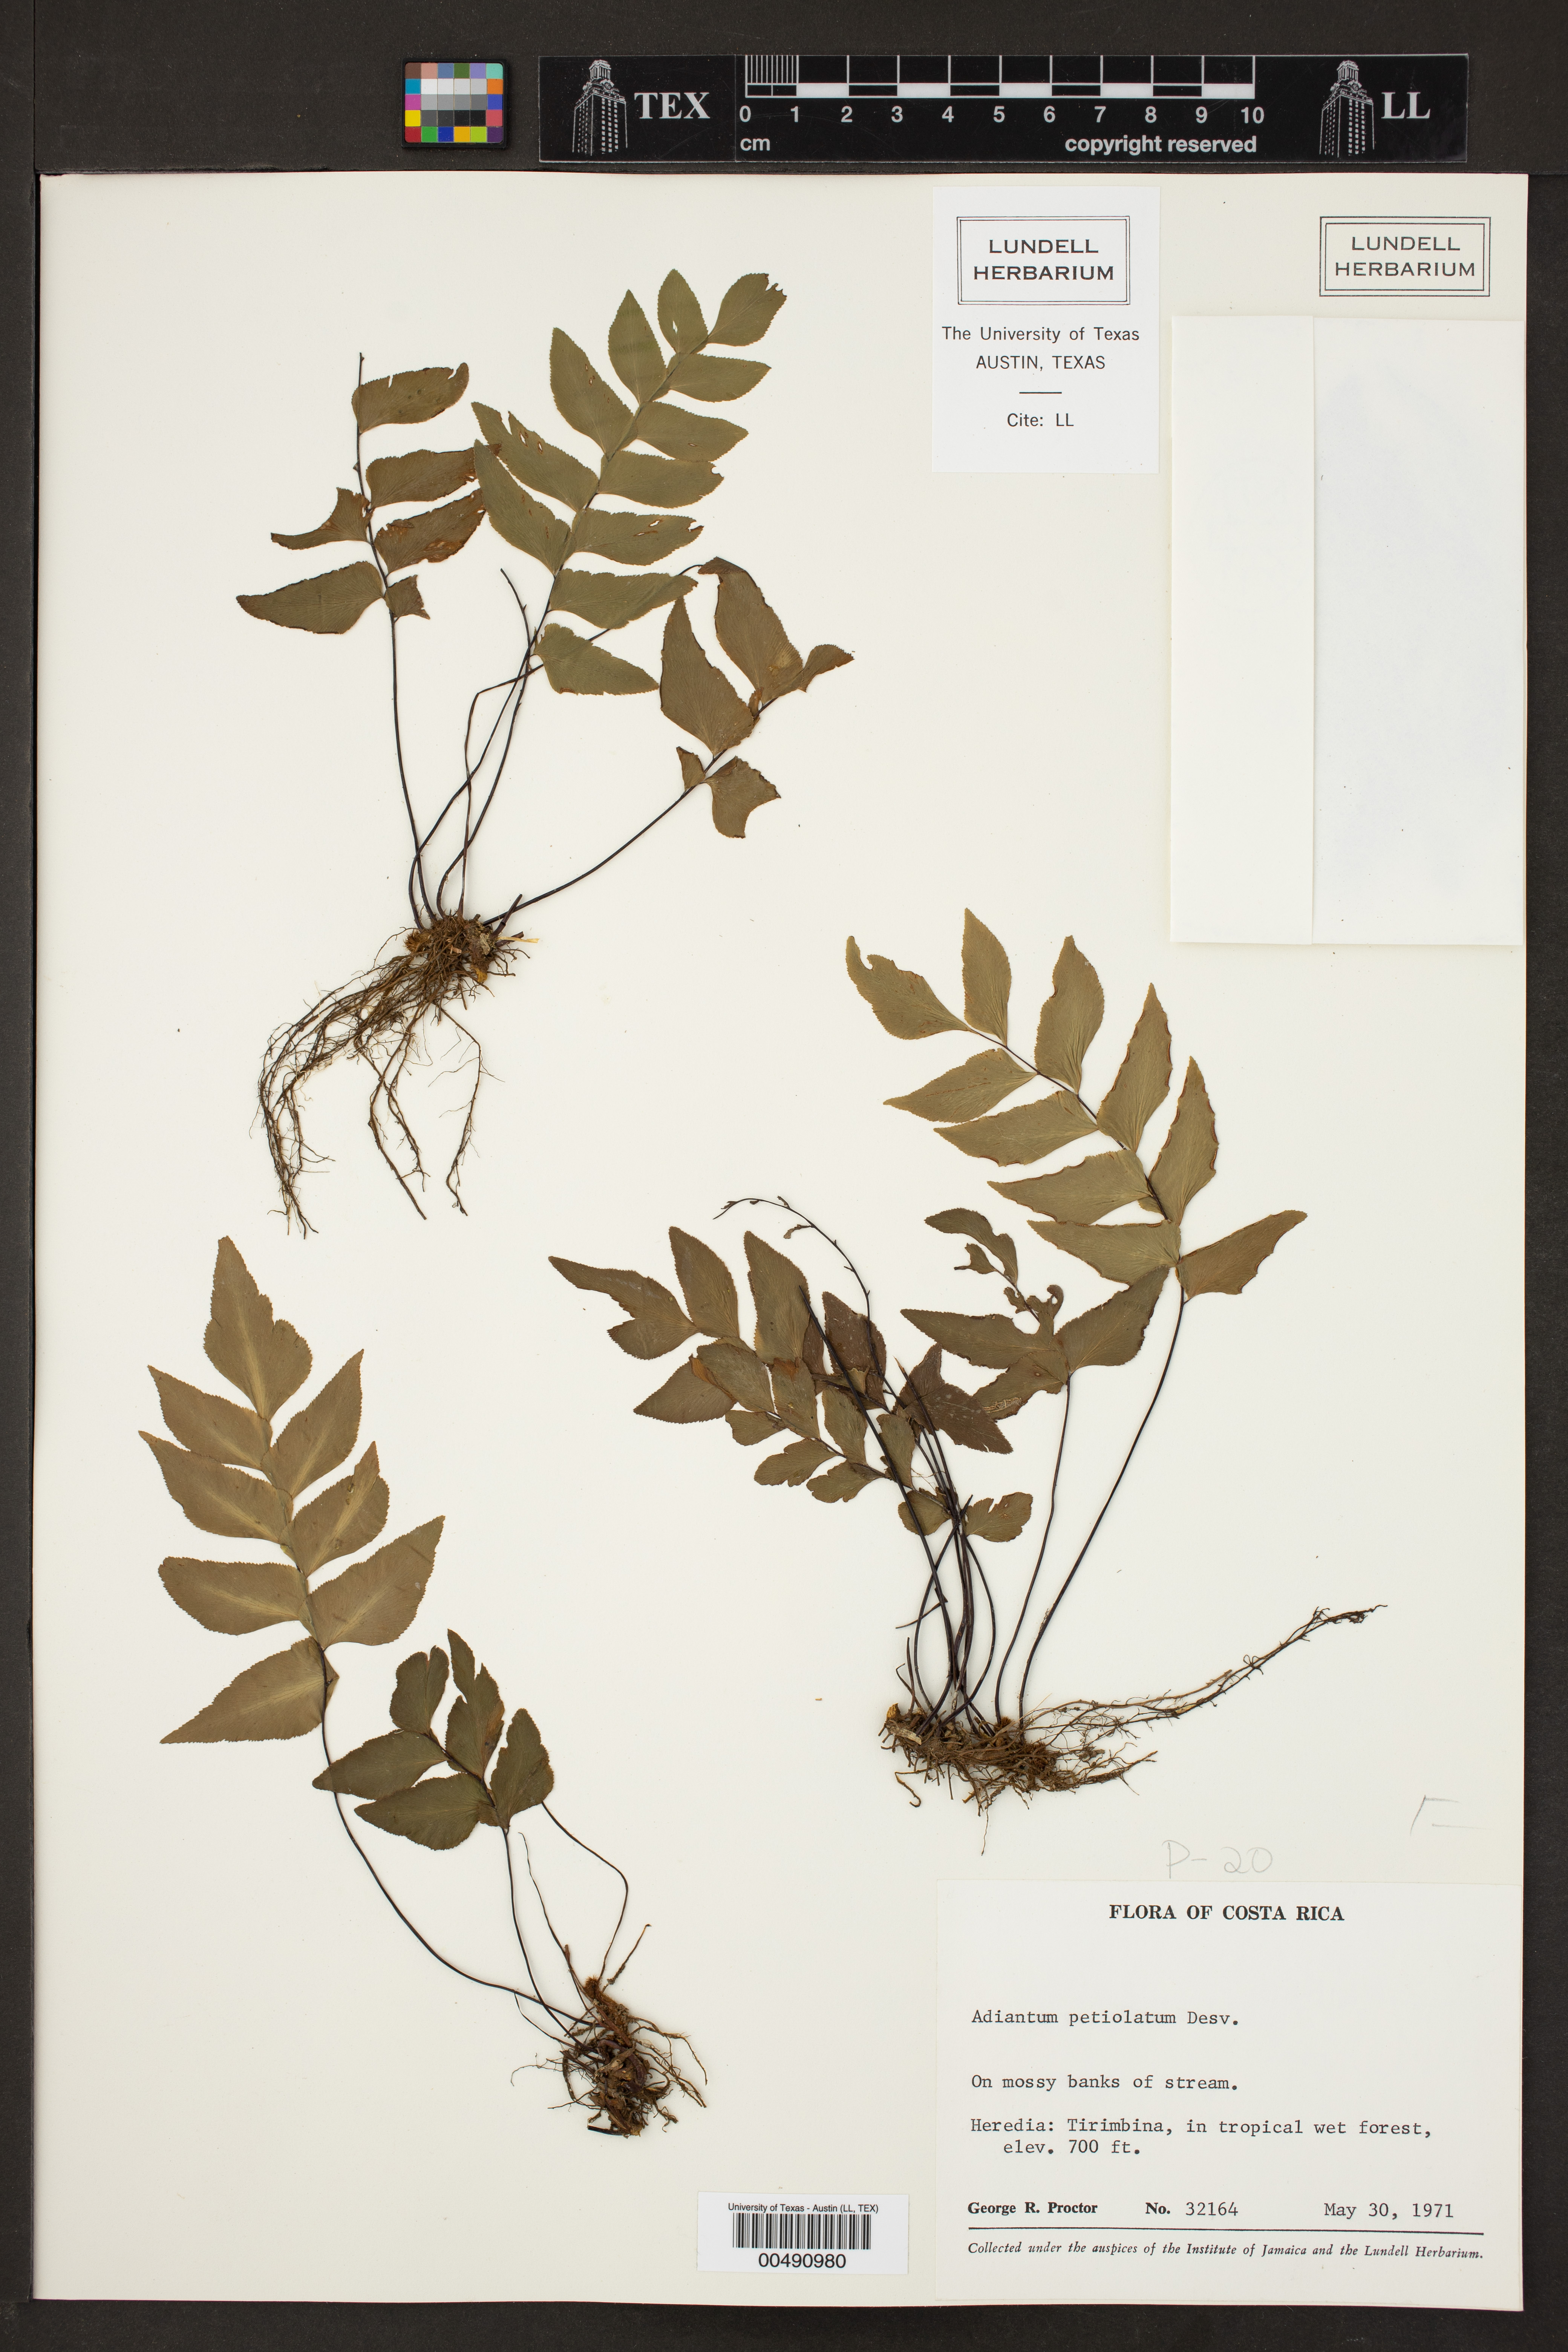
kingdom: Plantae
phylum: Tracheophyta
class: Polypodiopsida
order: Polypodiales
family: Pteridaceae
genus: Adiantum
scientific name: Adiantum petiolatum
